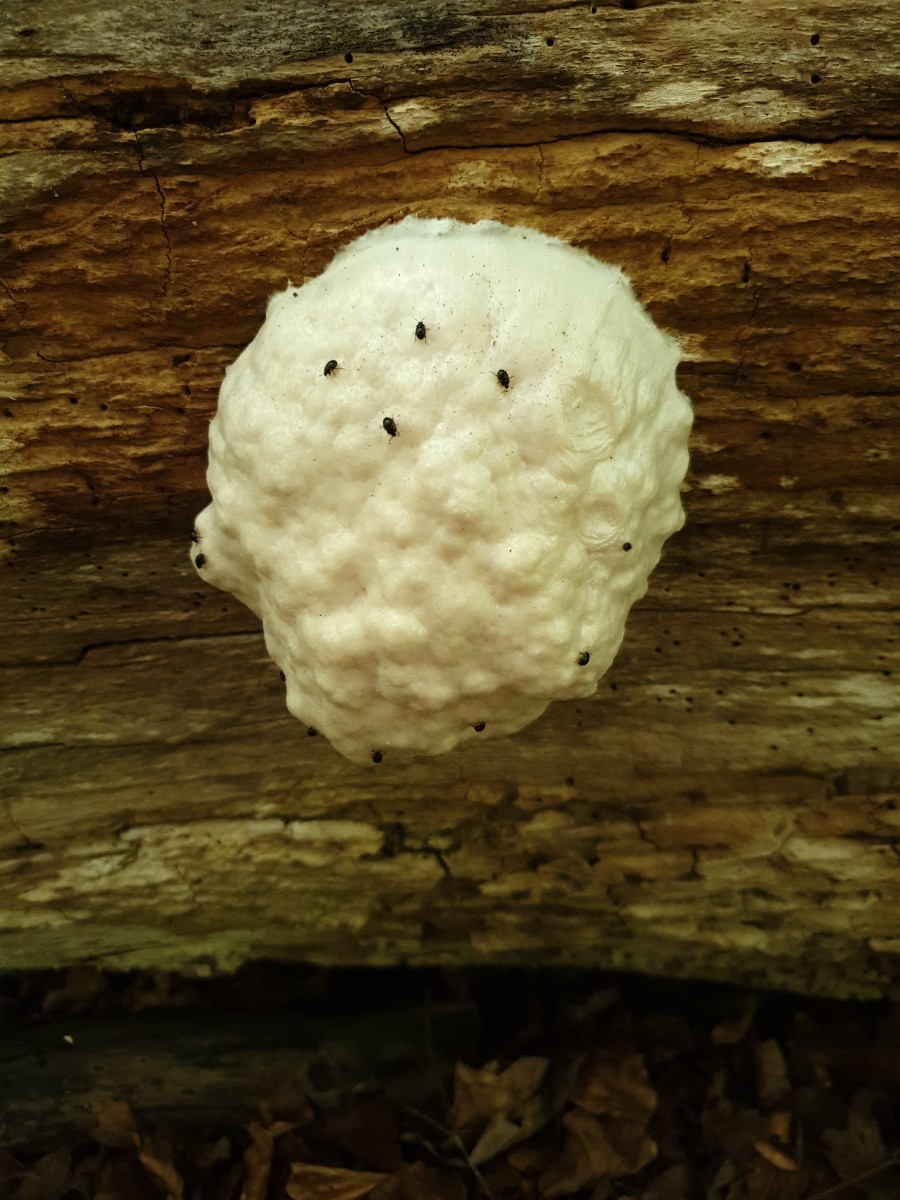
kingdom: Protozoa
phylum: Mycetozoa
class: Myxomycetes
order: Cribrariales
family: Tubiferaceae
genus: Reticularia
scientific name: Reticularia lycoperdon
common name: skinnende støvpude
